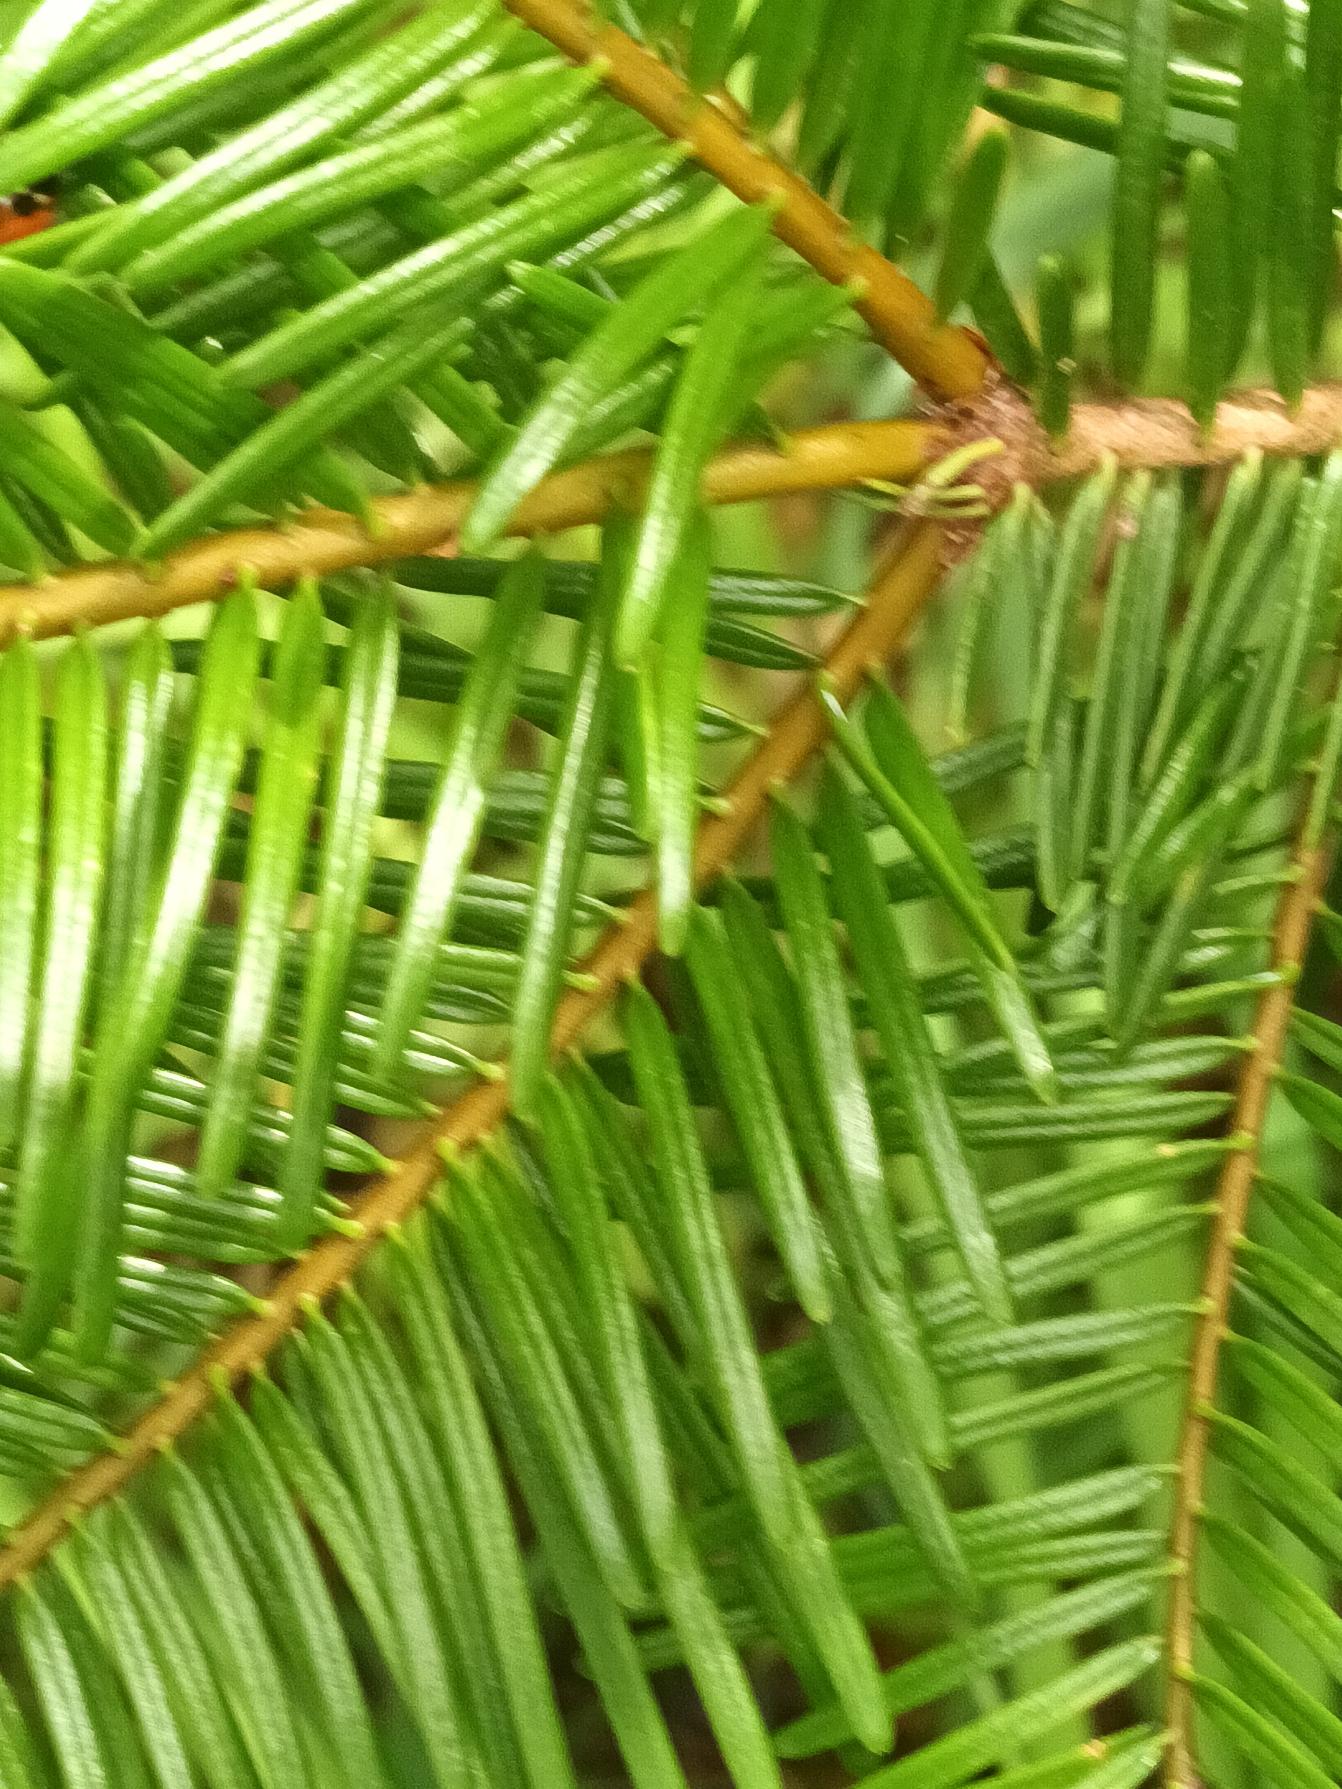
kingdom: Plantae
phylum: Tracheophyta
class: Pinopsida
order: Pinales
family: Pinaceae
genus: Abies
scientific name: Abies grandis
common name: Kæmpegran
